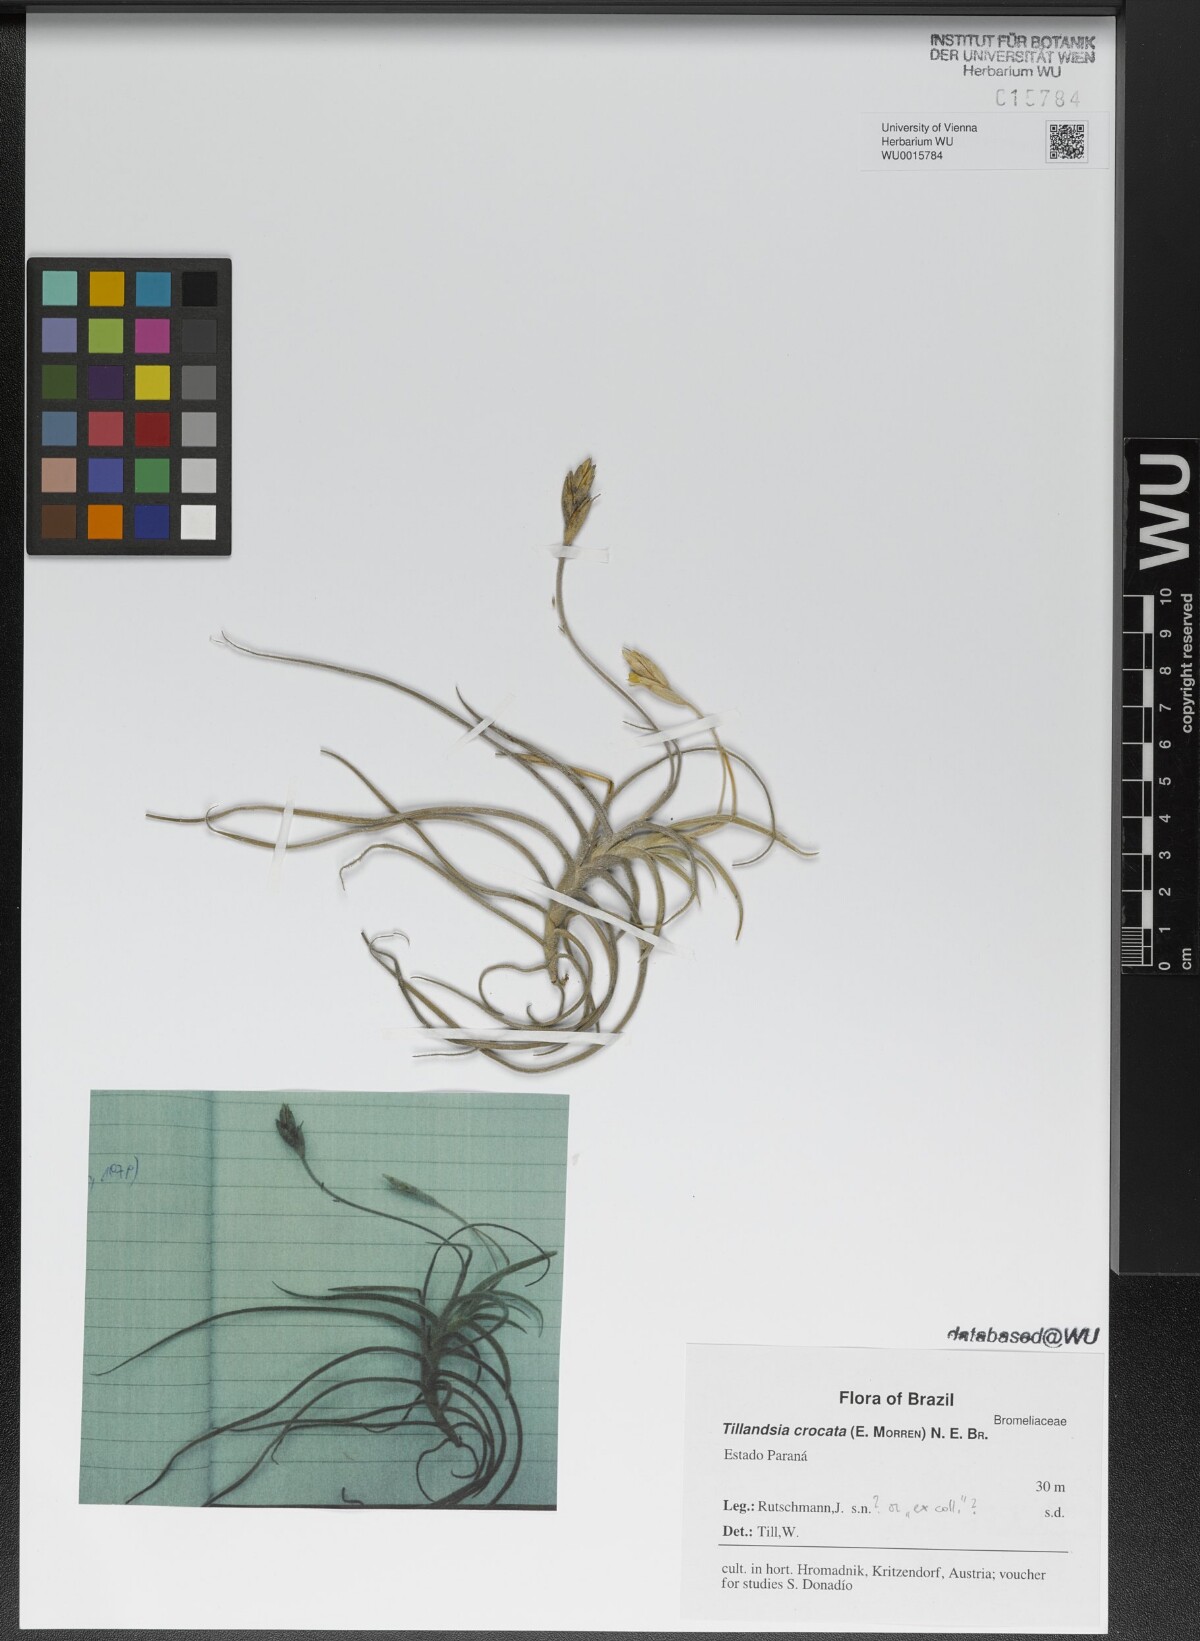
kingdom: Plantae
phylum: Tracheophyta
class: Liliopsida
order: Poales
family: Bromeliaceae
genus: Tillandsia
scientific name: Tillandsia crocata
